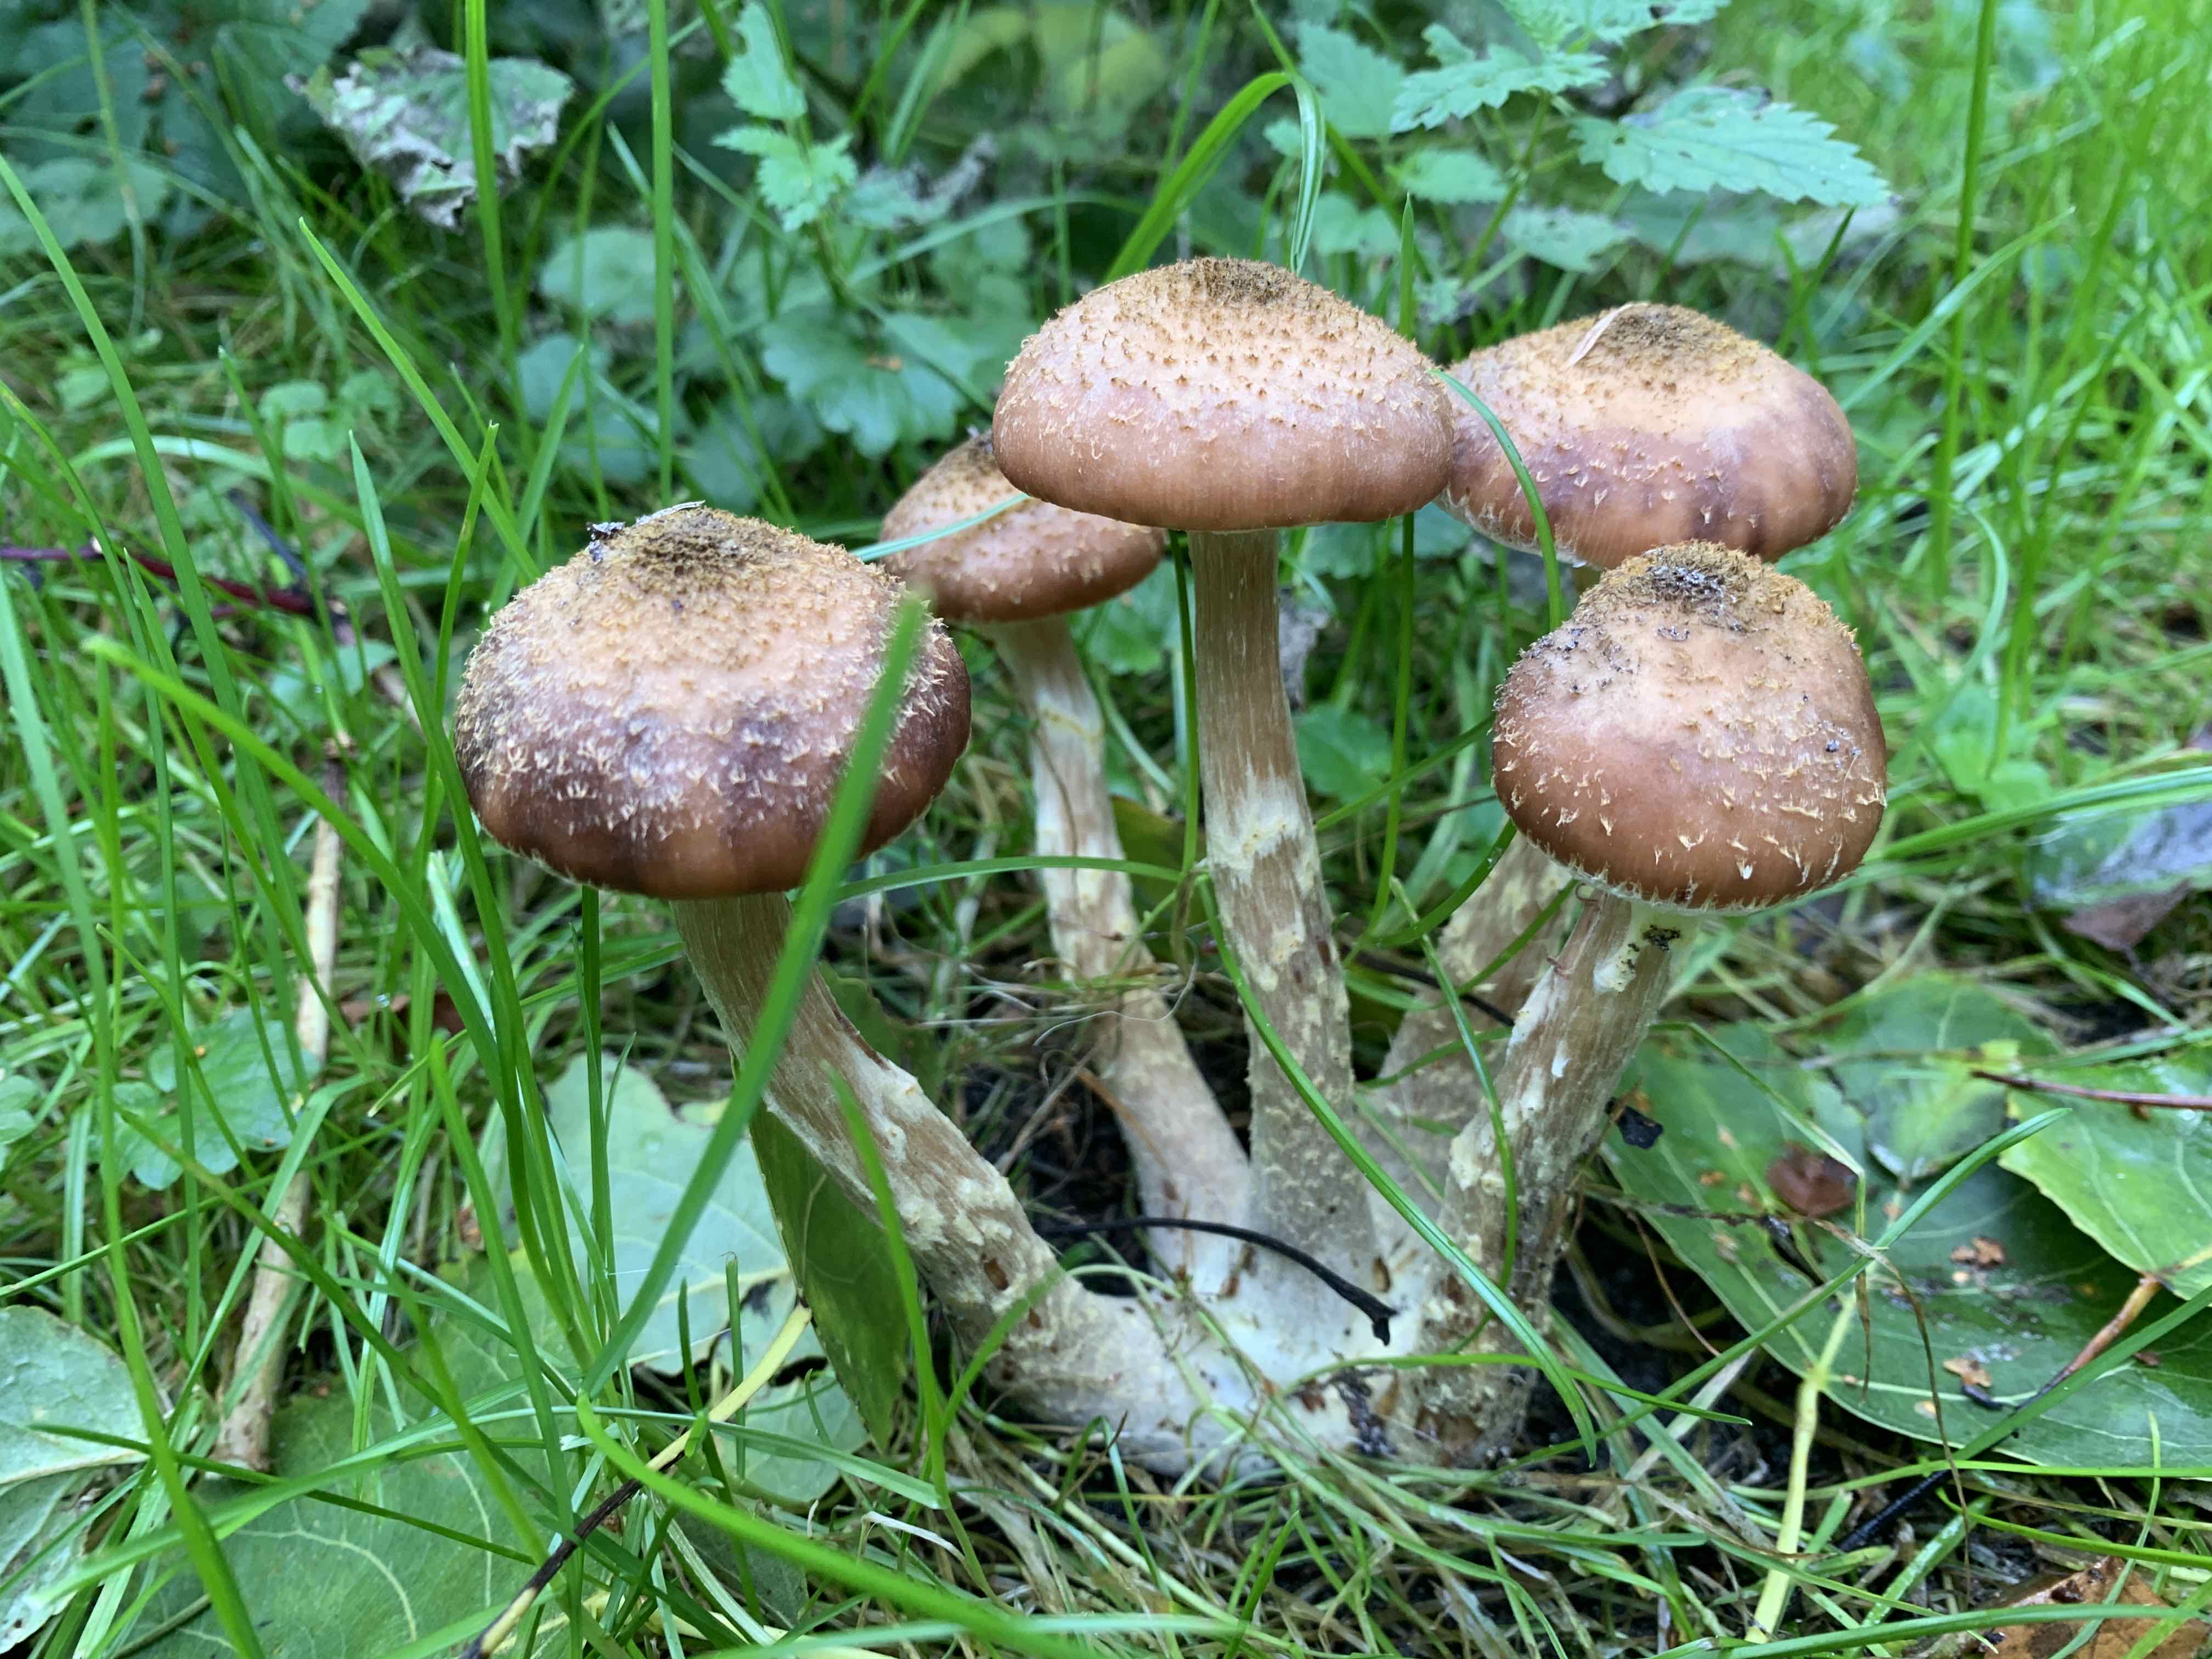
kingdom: Fungi
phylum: Basidiomycota
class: Agaricomycetes
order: Agaricales
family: Physalacriaceae
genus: Armillaria
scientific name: Armillaria ostoyae
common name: mørk honningsvamp
